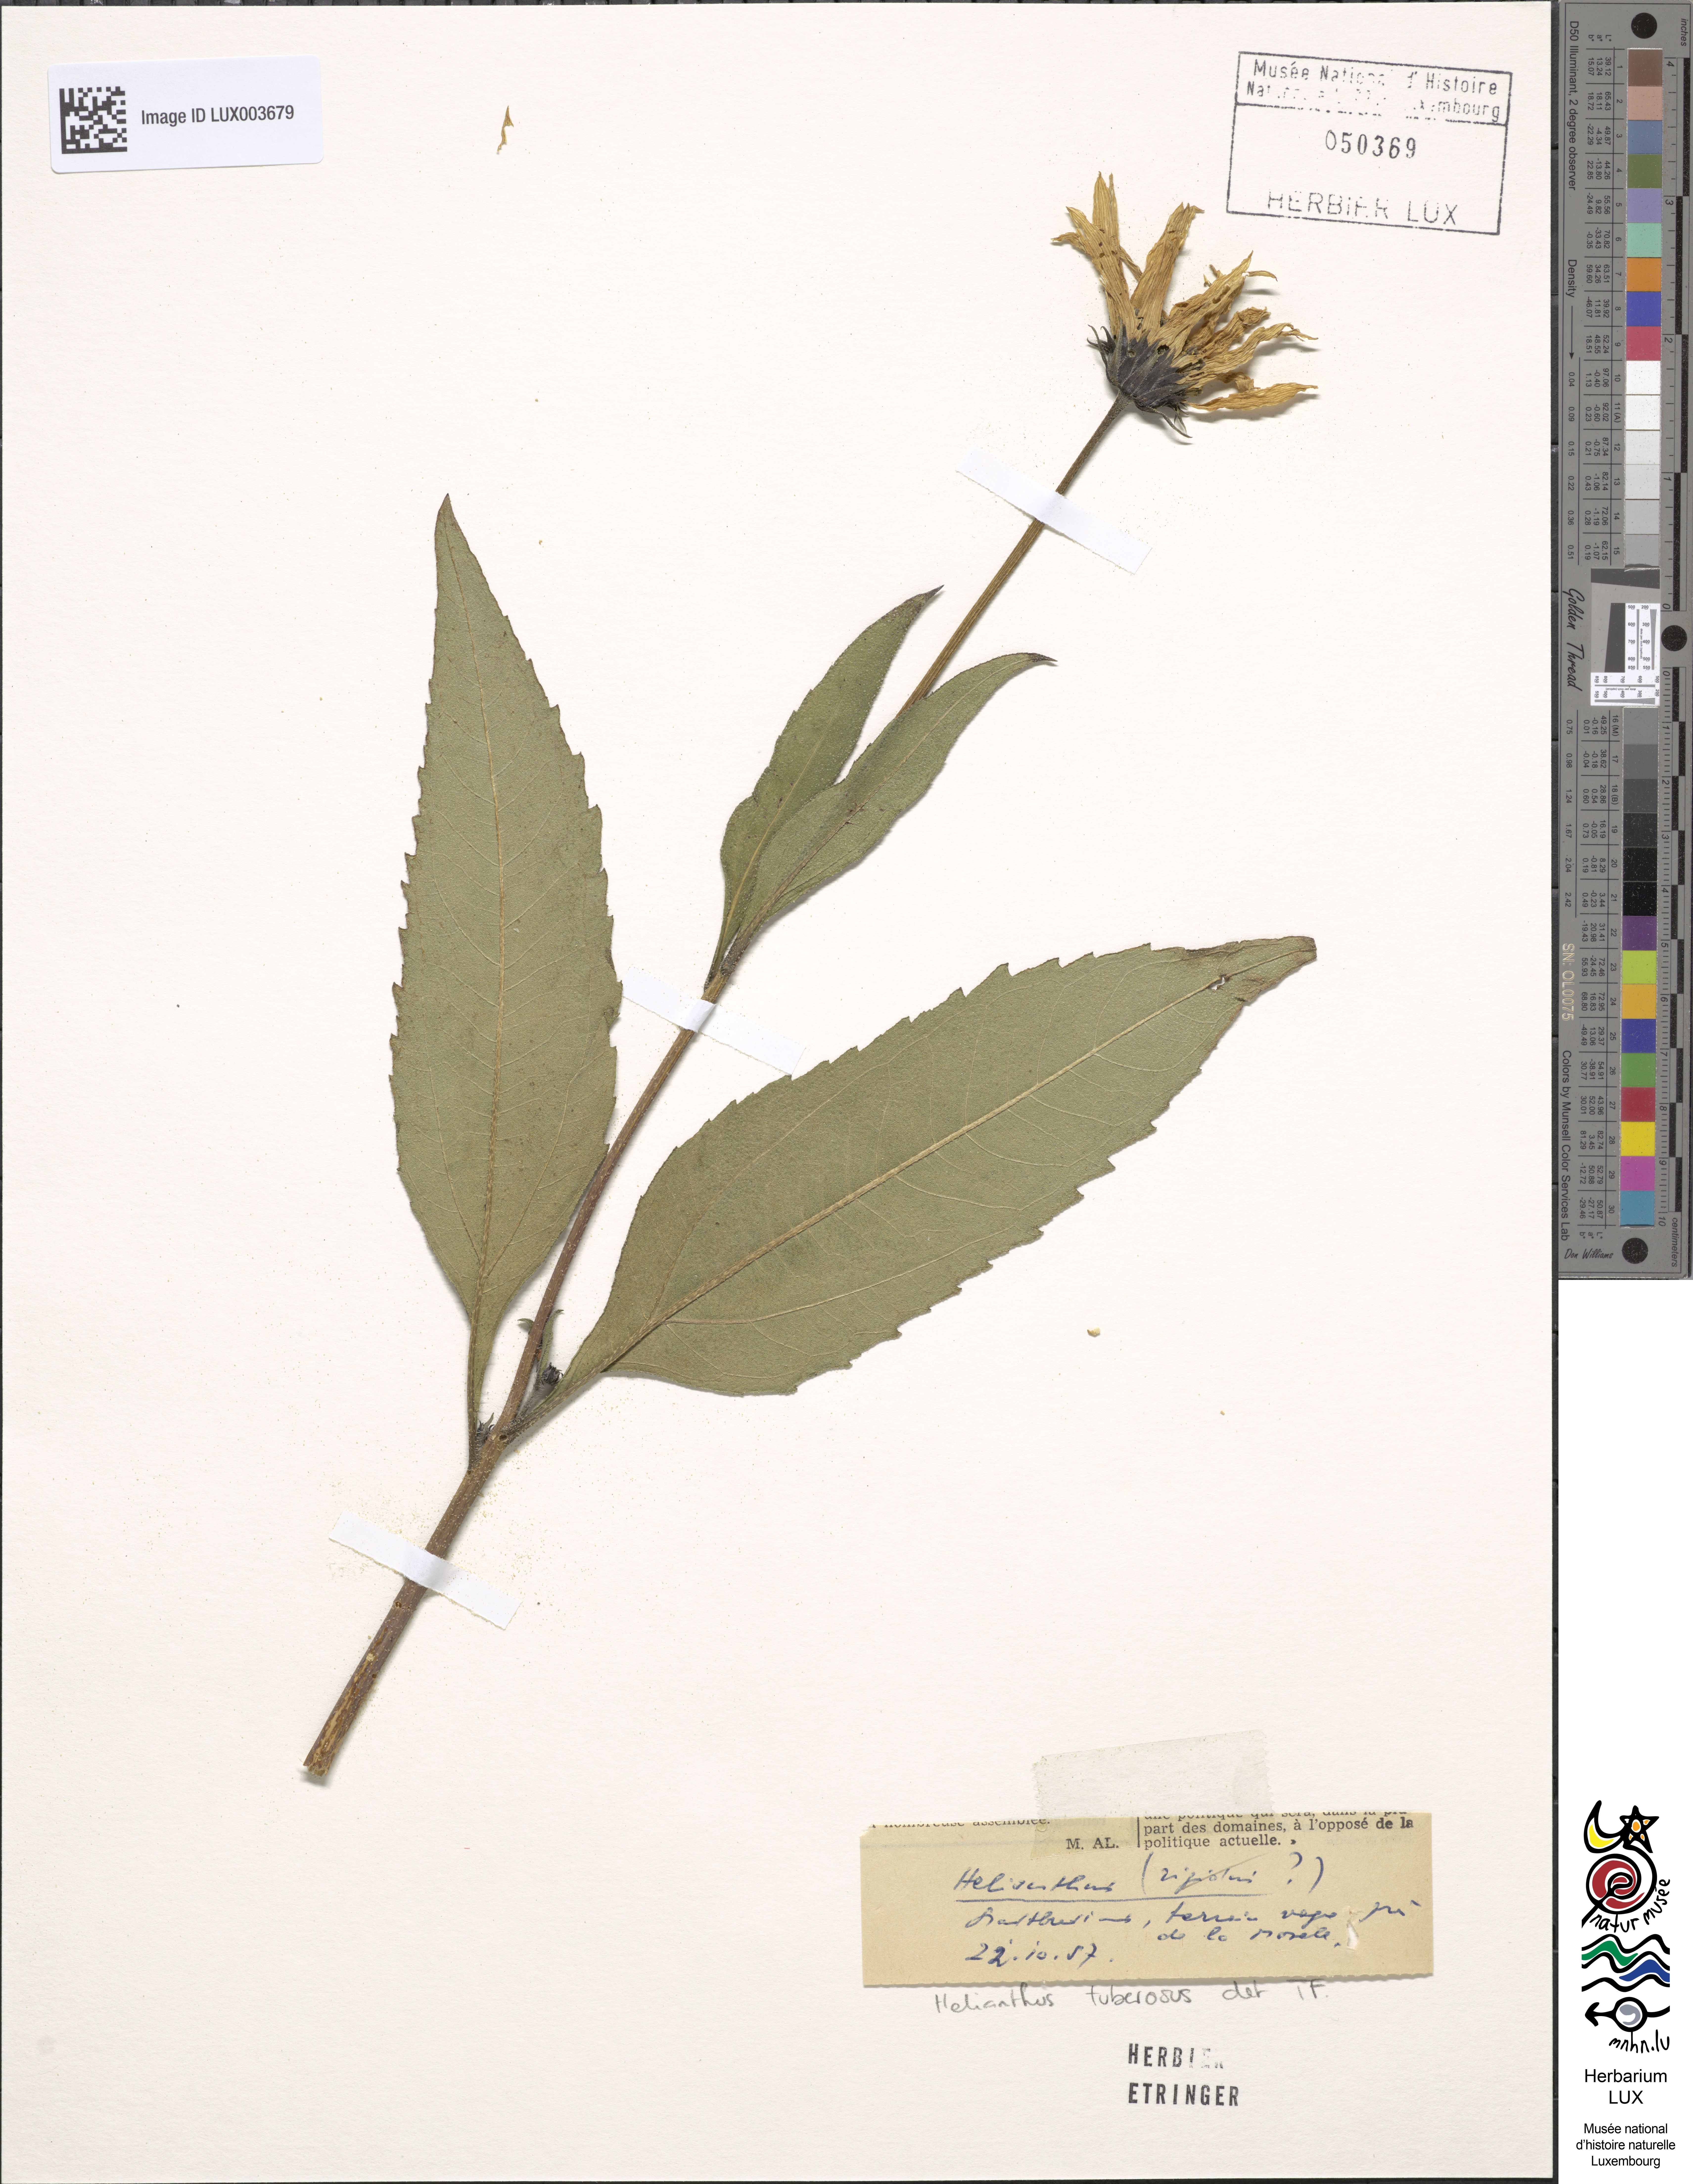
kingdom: Plantae
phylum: Tracheophyta
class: Magnoliopsida
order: Asterales
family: Asteraceae
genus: Helianthus
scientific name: Helianthus tuberosus
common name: Jerusalem artichoke
